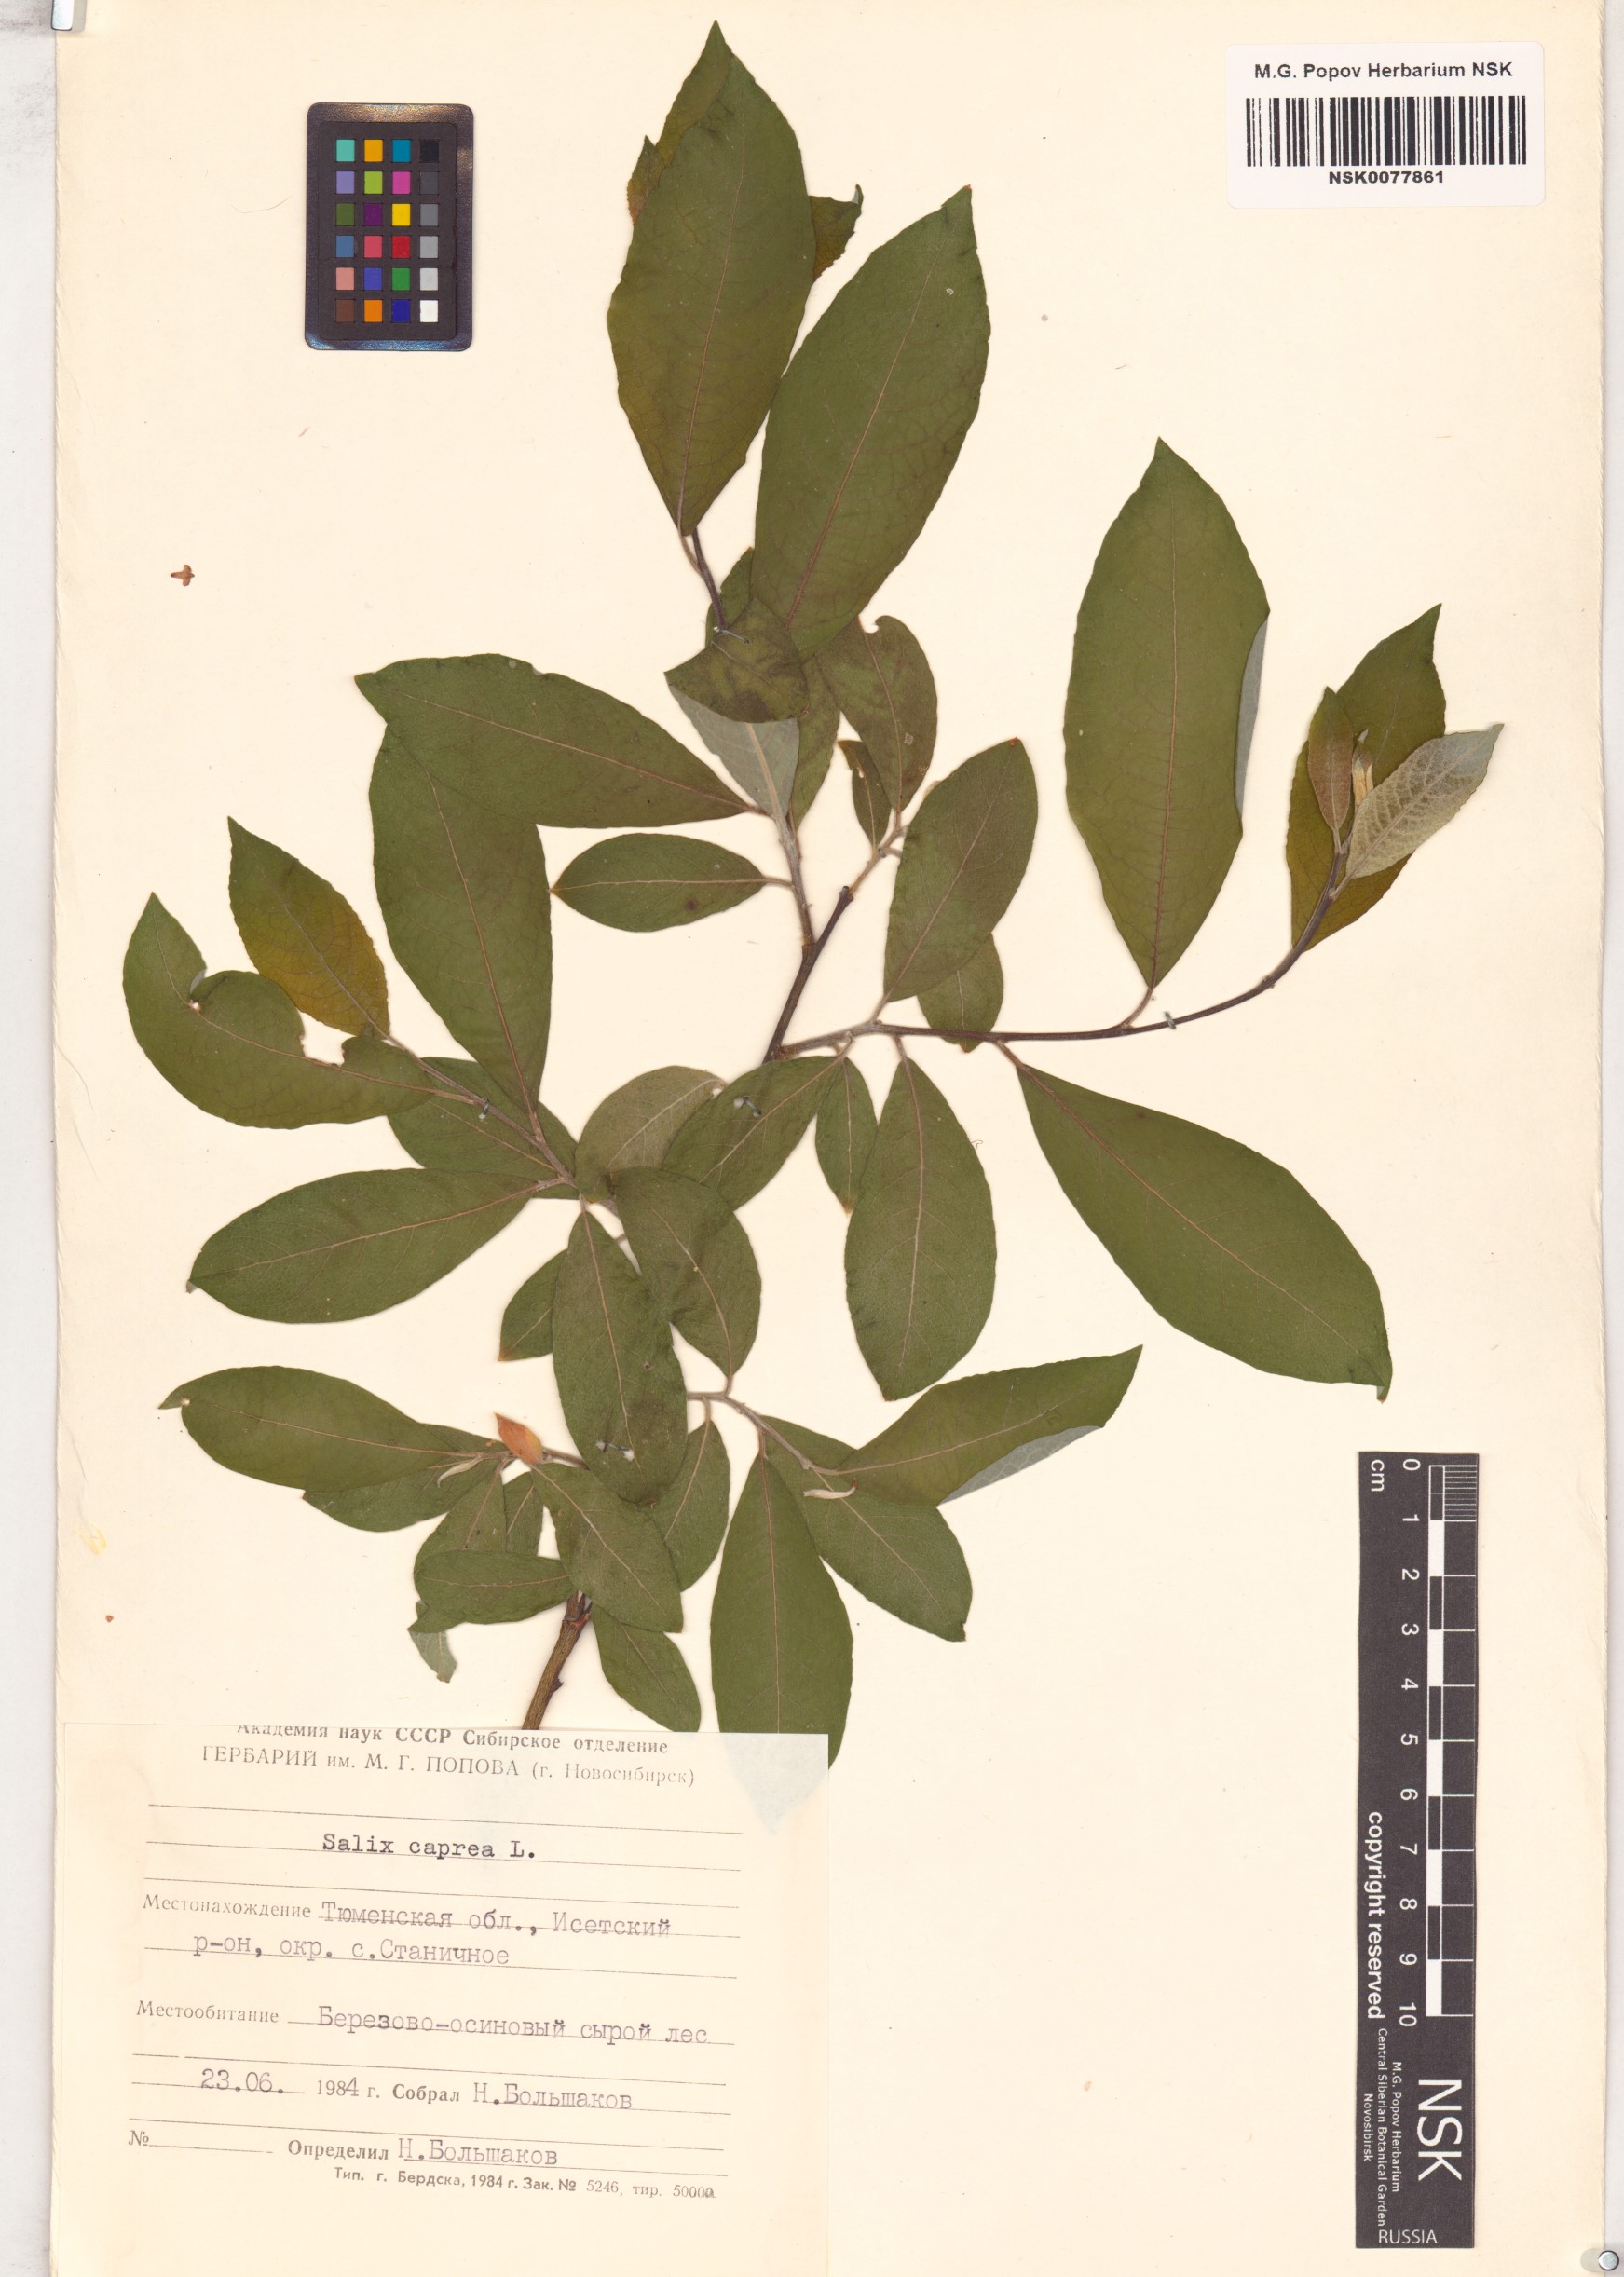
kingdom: Plantae
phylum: Tracheophyta
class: Magnoliopsida
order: Malpighiales
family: Salicaceae
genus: Salix
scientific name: Salix caprea
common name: Goat willow
